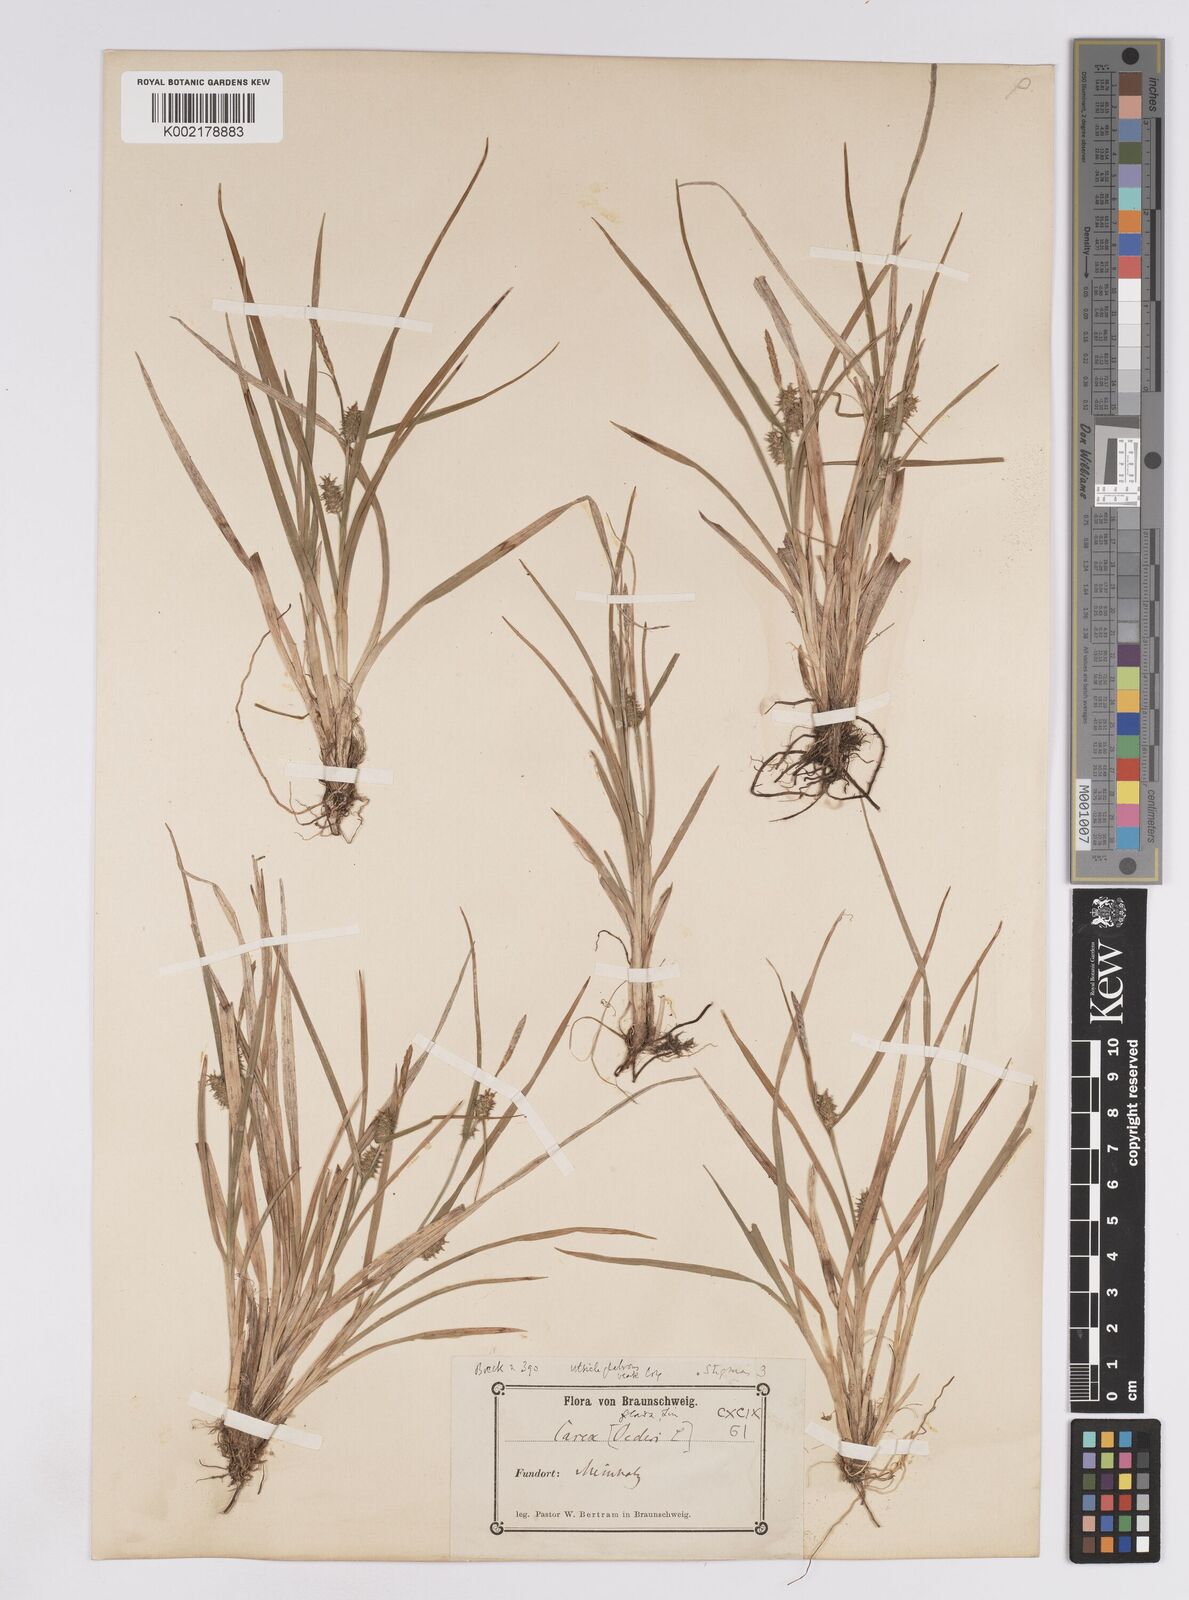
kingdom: Plantae
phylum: Tracheophyta
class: Liliopsida
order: Poales
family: Cyperaceae
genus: Carex
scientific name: Carex lepidocarpa
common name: Long-stalked yellow-sedge
